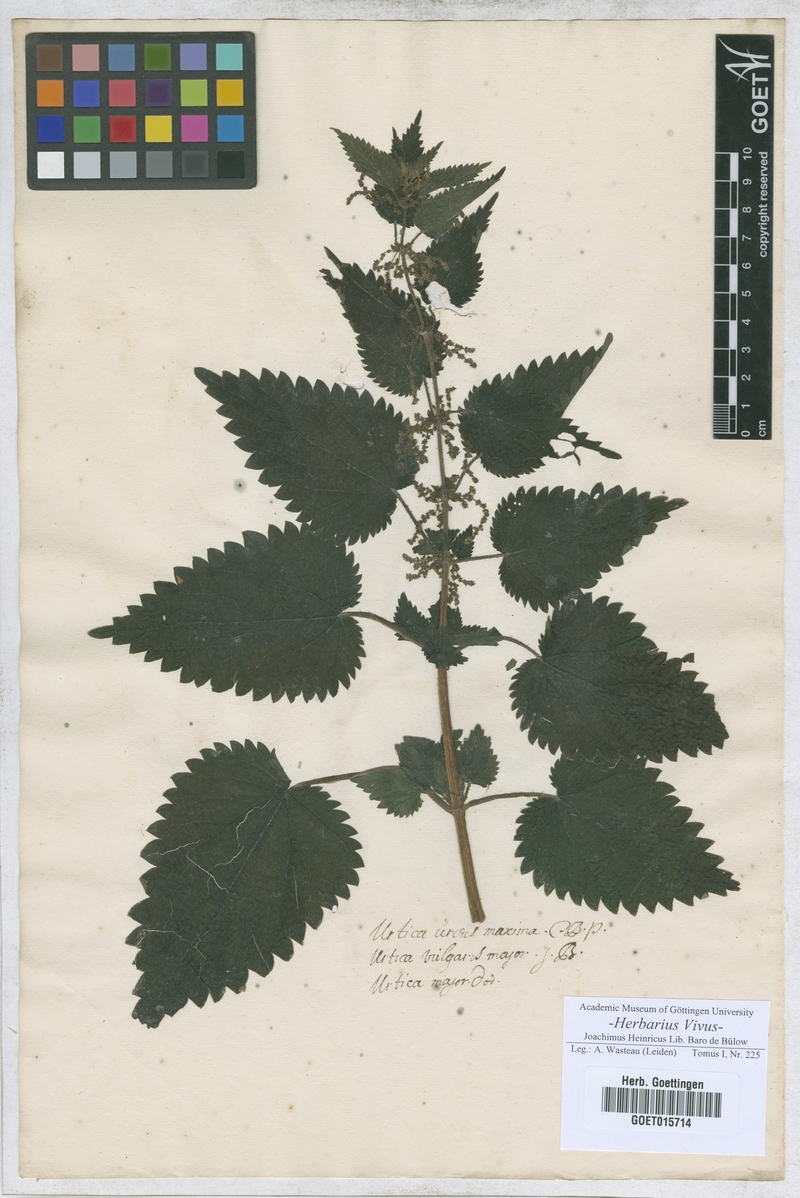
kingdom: Plantae
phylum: Tracheophyta
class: Magnoliopsida
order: Rosales
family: Urticaceae
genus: Urtica
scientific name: Urtica dioica
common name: Common nettle
